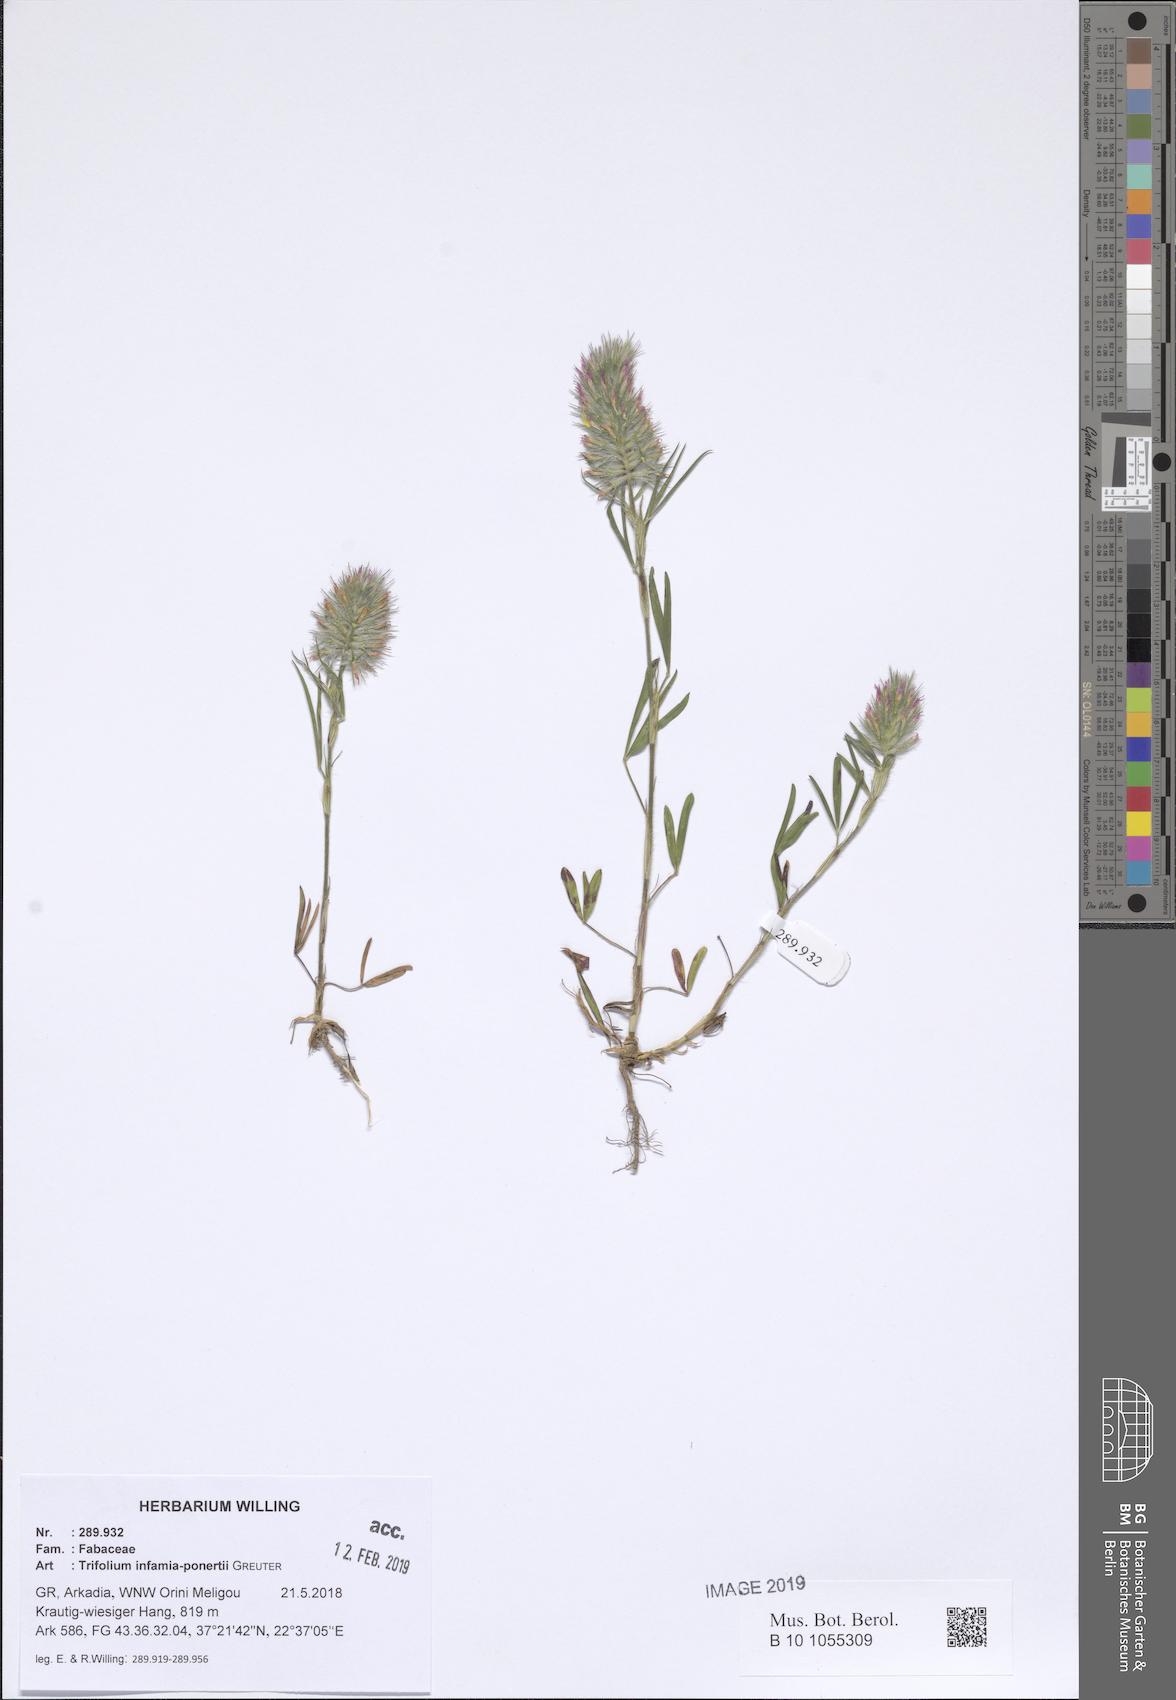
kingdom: Plantae
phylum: Tracheophyta
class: Magnoliopsida
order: Fabales
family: Fabaceae
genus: Trifolium
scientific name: Trifolium infamia-ponertii
